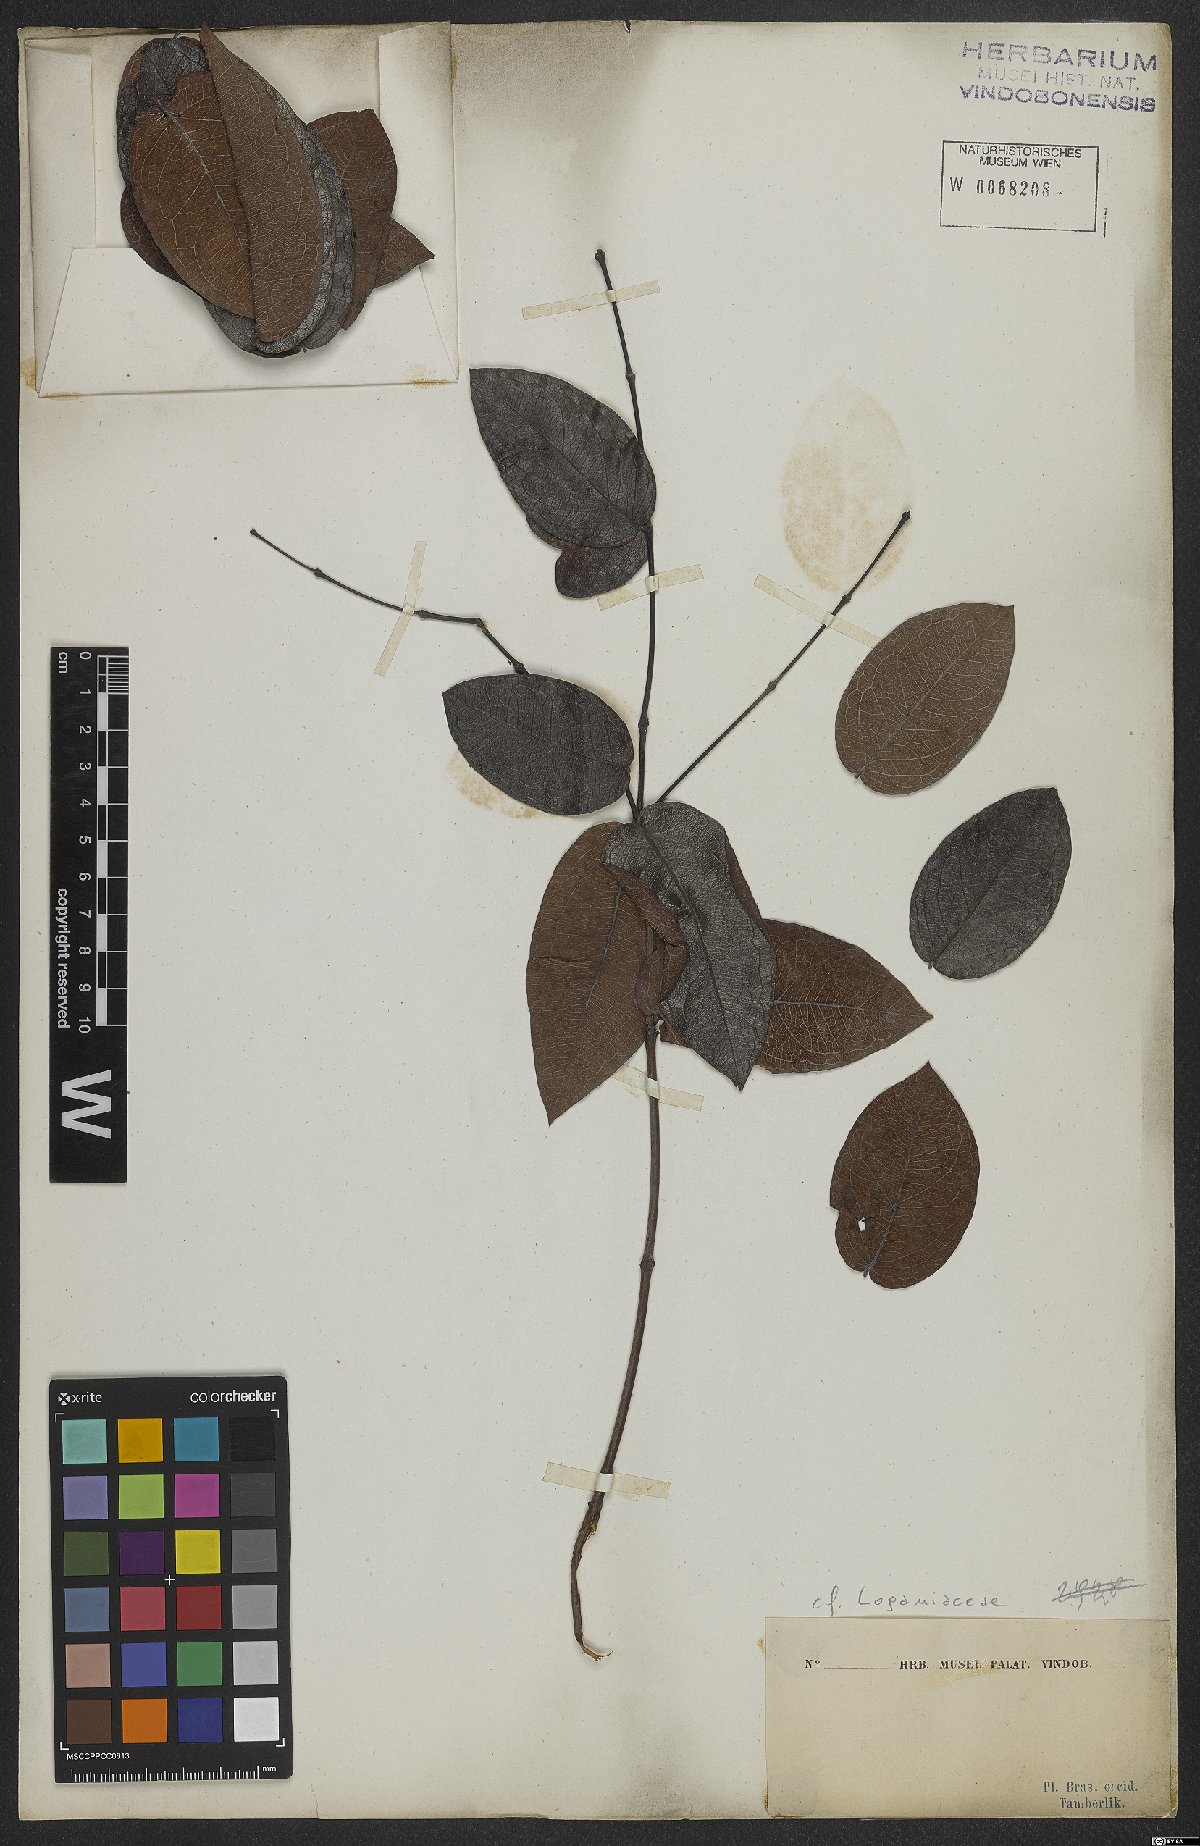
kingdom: Plantae
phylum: Tracheophyta
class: Magnoliopsida
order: Gentianales
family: Loganiaceae
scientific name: Loganiaceae
